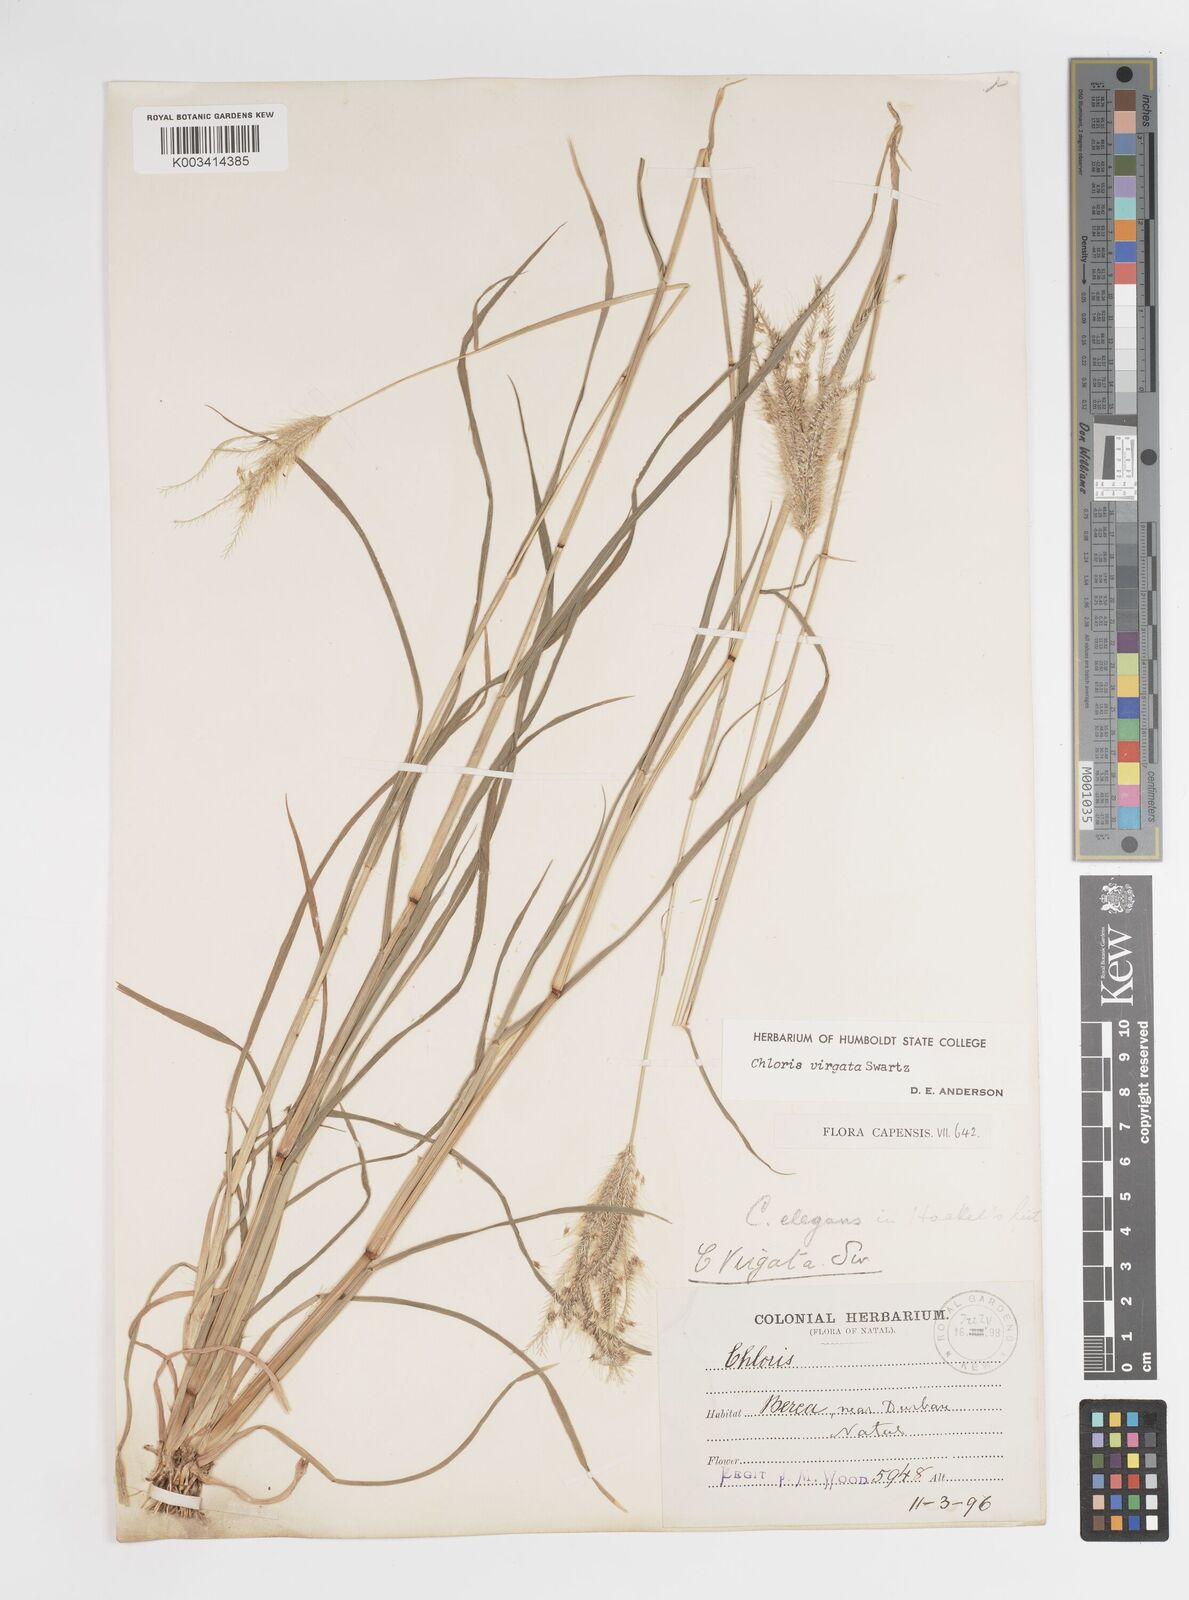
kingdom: Plantae
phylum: Tracheophyta
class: Liliopsida
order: Poales
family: Poaceae
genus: Chloris
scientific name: Chloris virgata
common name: Feathery rhodes-grass
